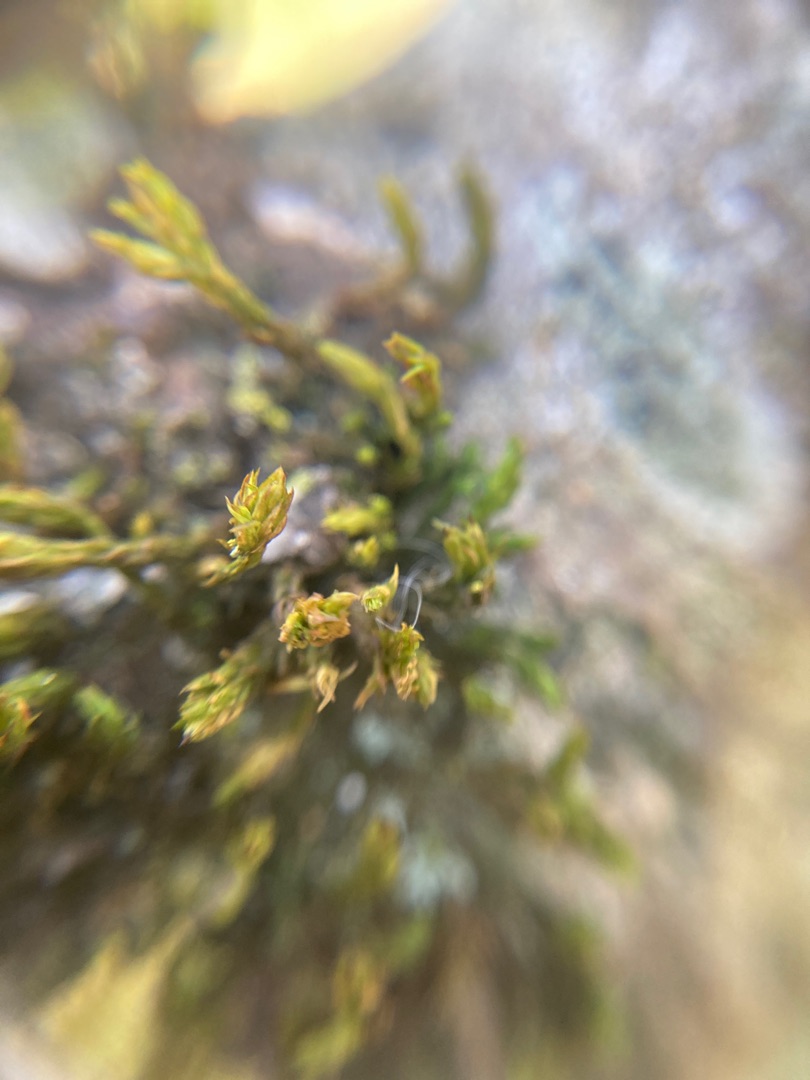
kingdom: Plantae
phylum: Bryophyta
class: Bryopsida
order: Orthotrichales
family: Orthotrichaceae
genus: Orthotrichum
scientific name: Orthotrichum
